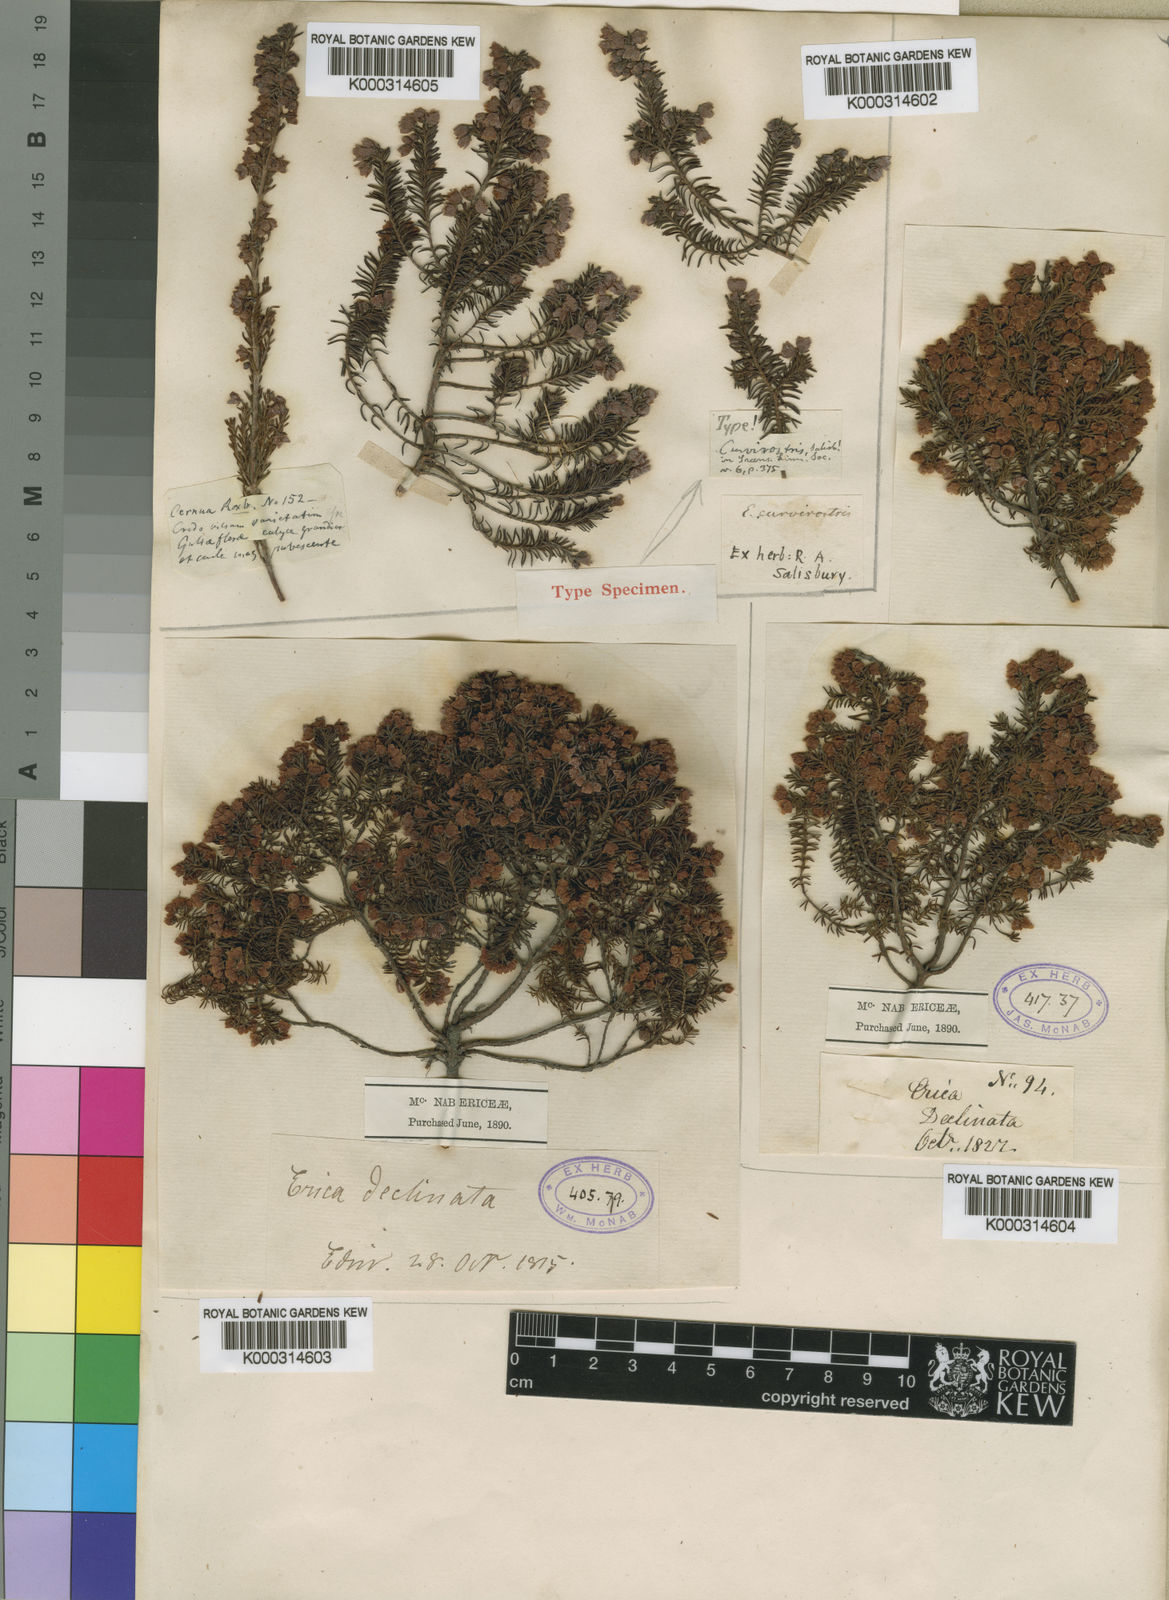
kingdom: Plantae
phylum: Tracheophyta
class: Magnoliopsida
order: Ericales
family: Ericaceae
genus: Erica
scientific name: Erica curvirostris
